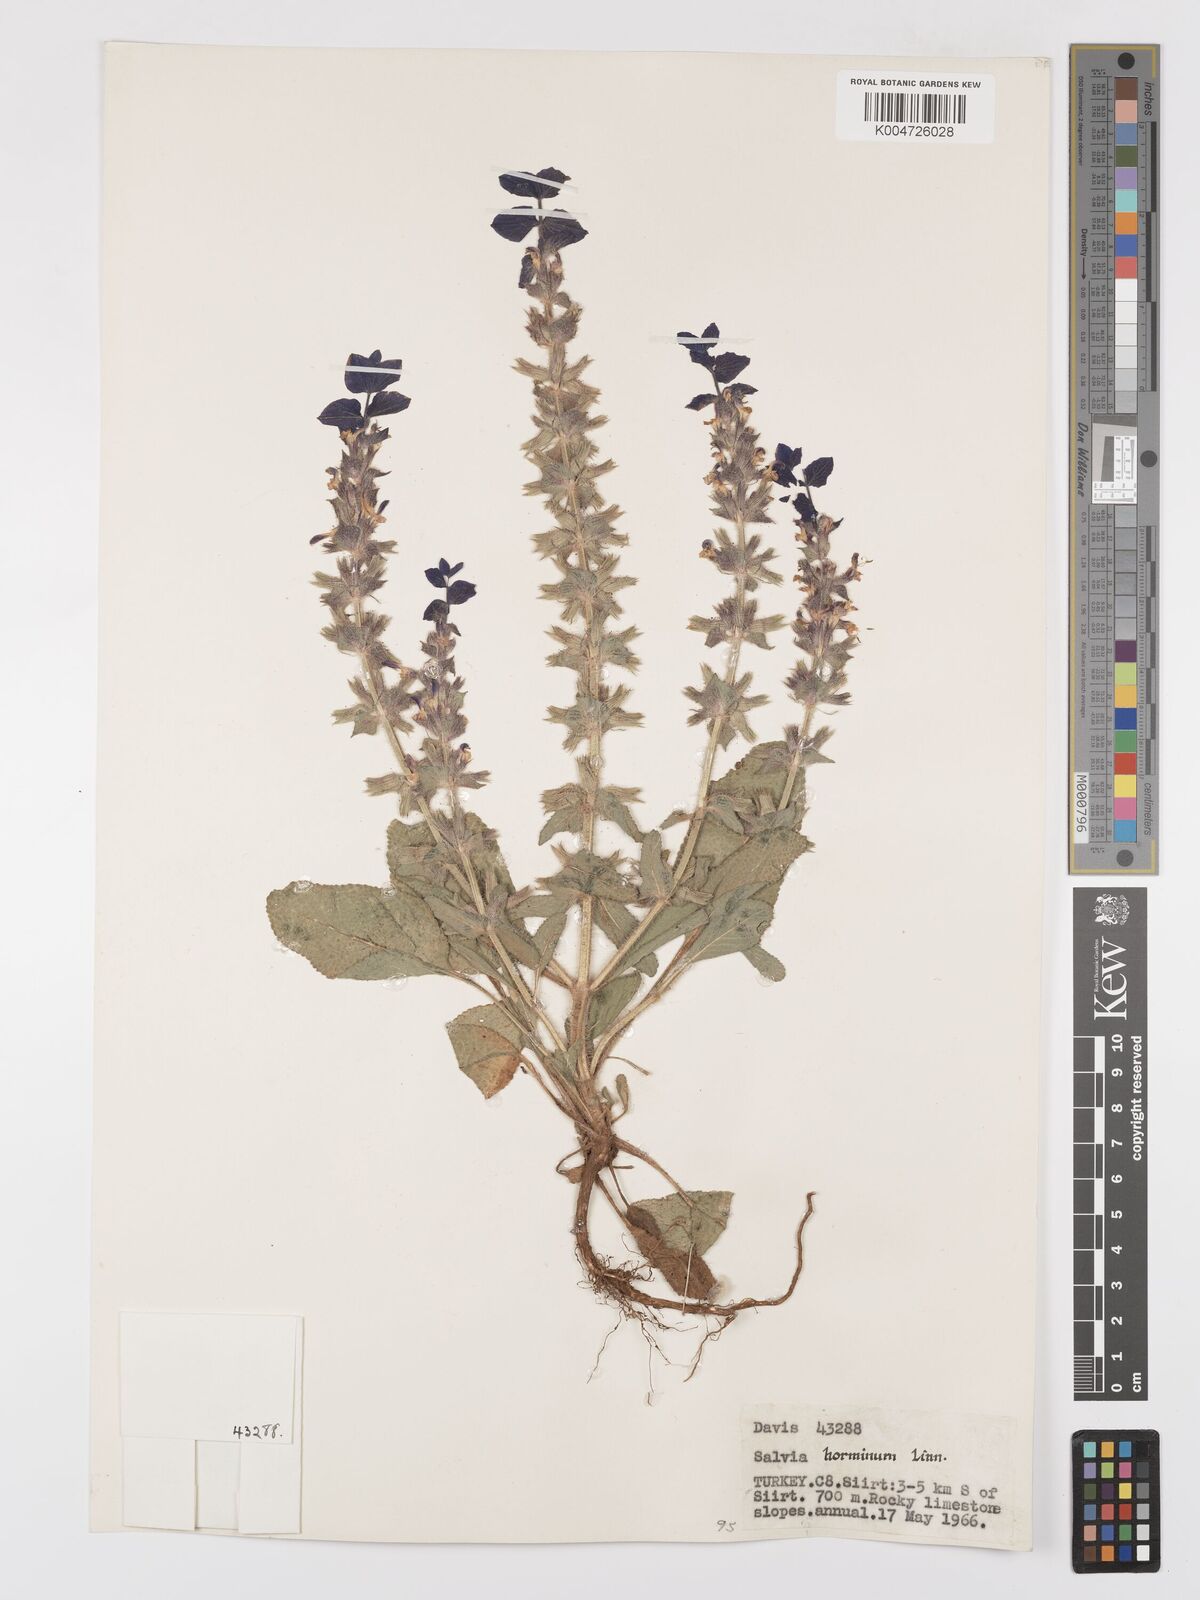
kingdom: Plantae
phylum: Tracheophyta
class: Magnoliopsida
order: Lamiales
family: Lamiaceae
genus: Salvia
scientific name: Salvia viridis
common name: Annual clary
